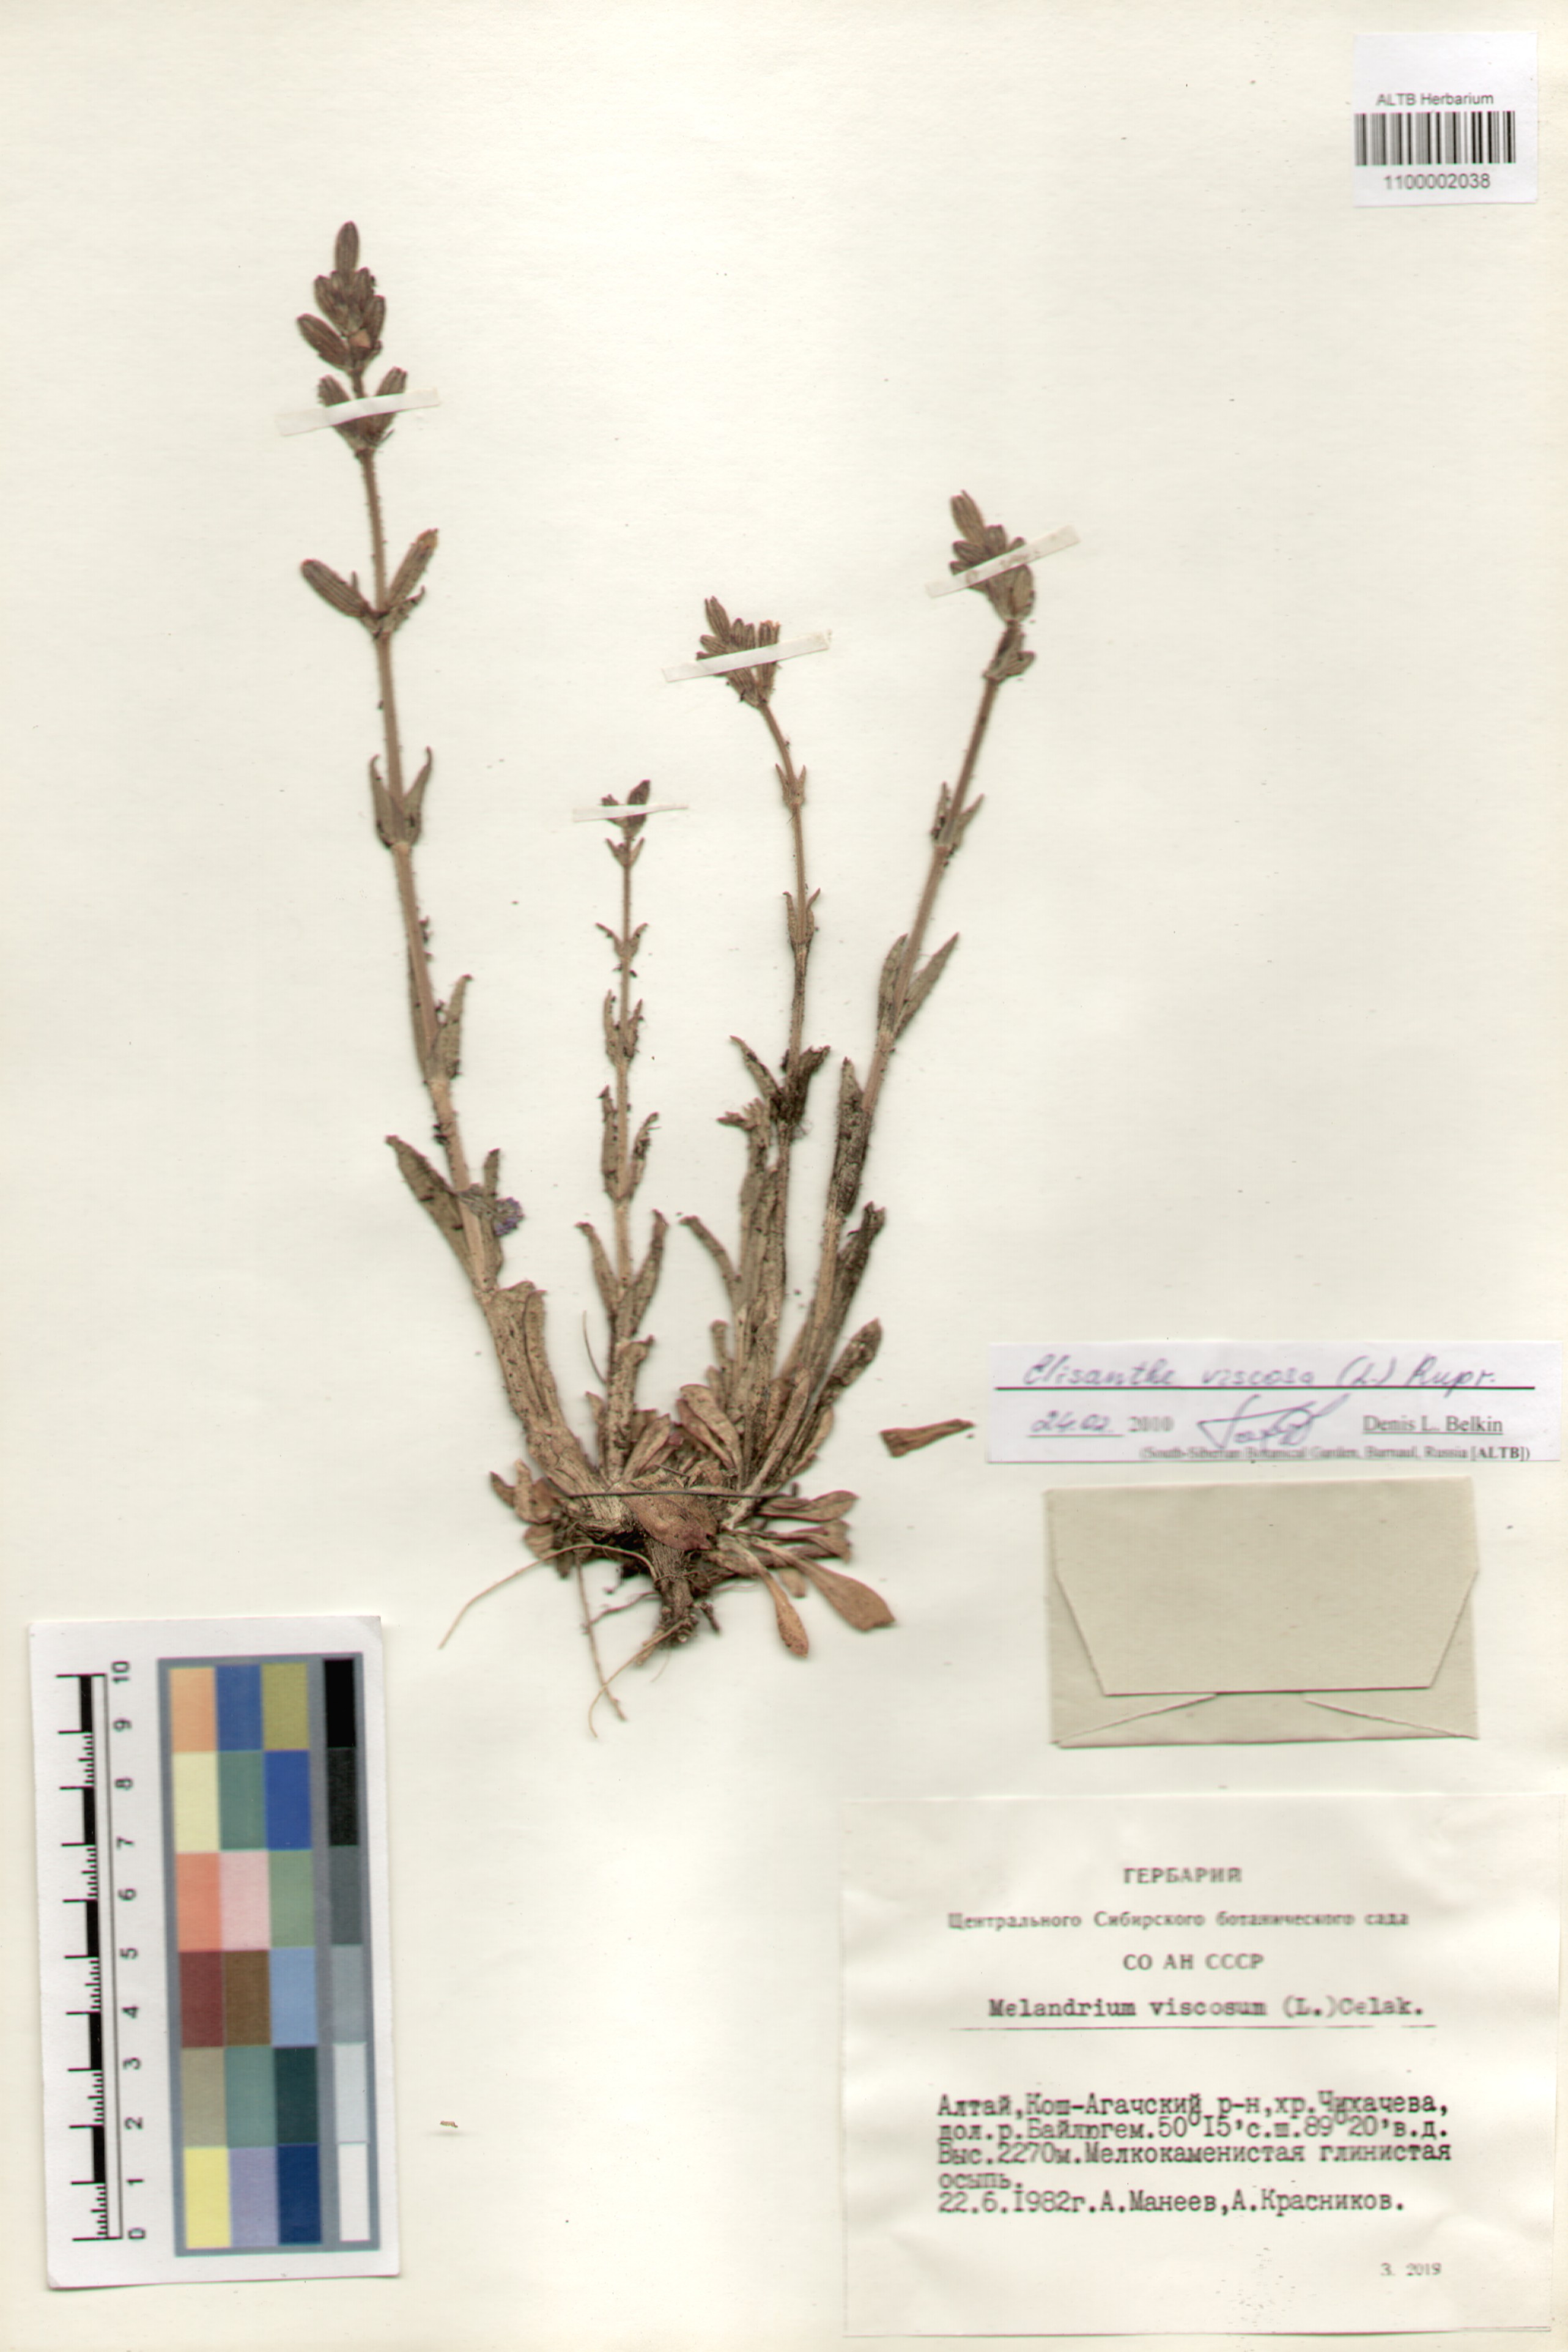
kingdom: Plantae
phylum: Tracheophyta
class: Magnoliopsida
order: Caryophyllales
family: Caryophyllaceae
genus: Silene
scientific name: Silene viscosa
